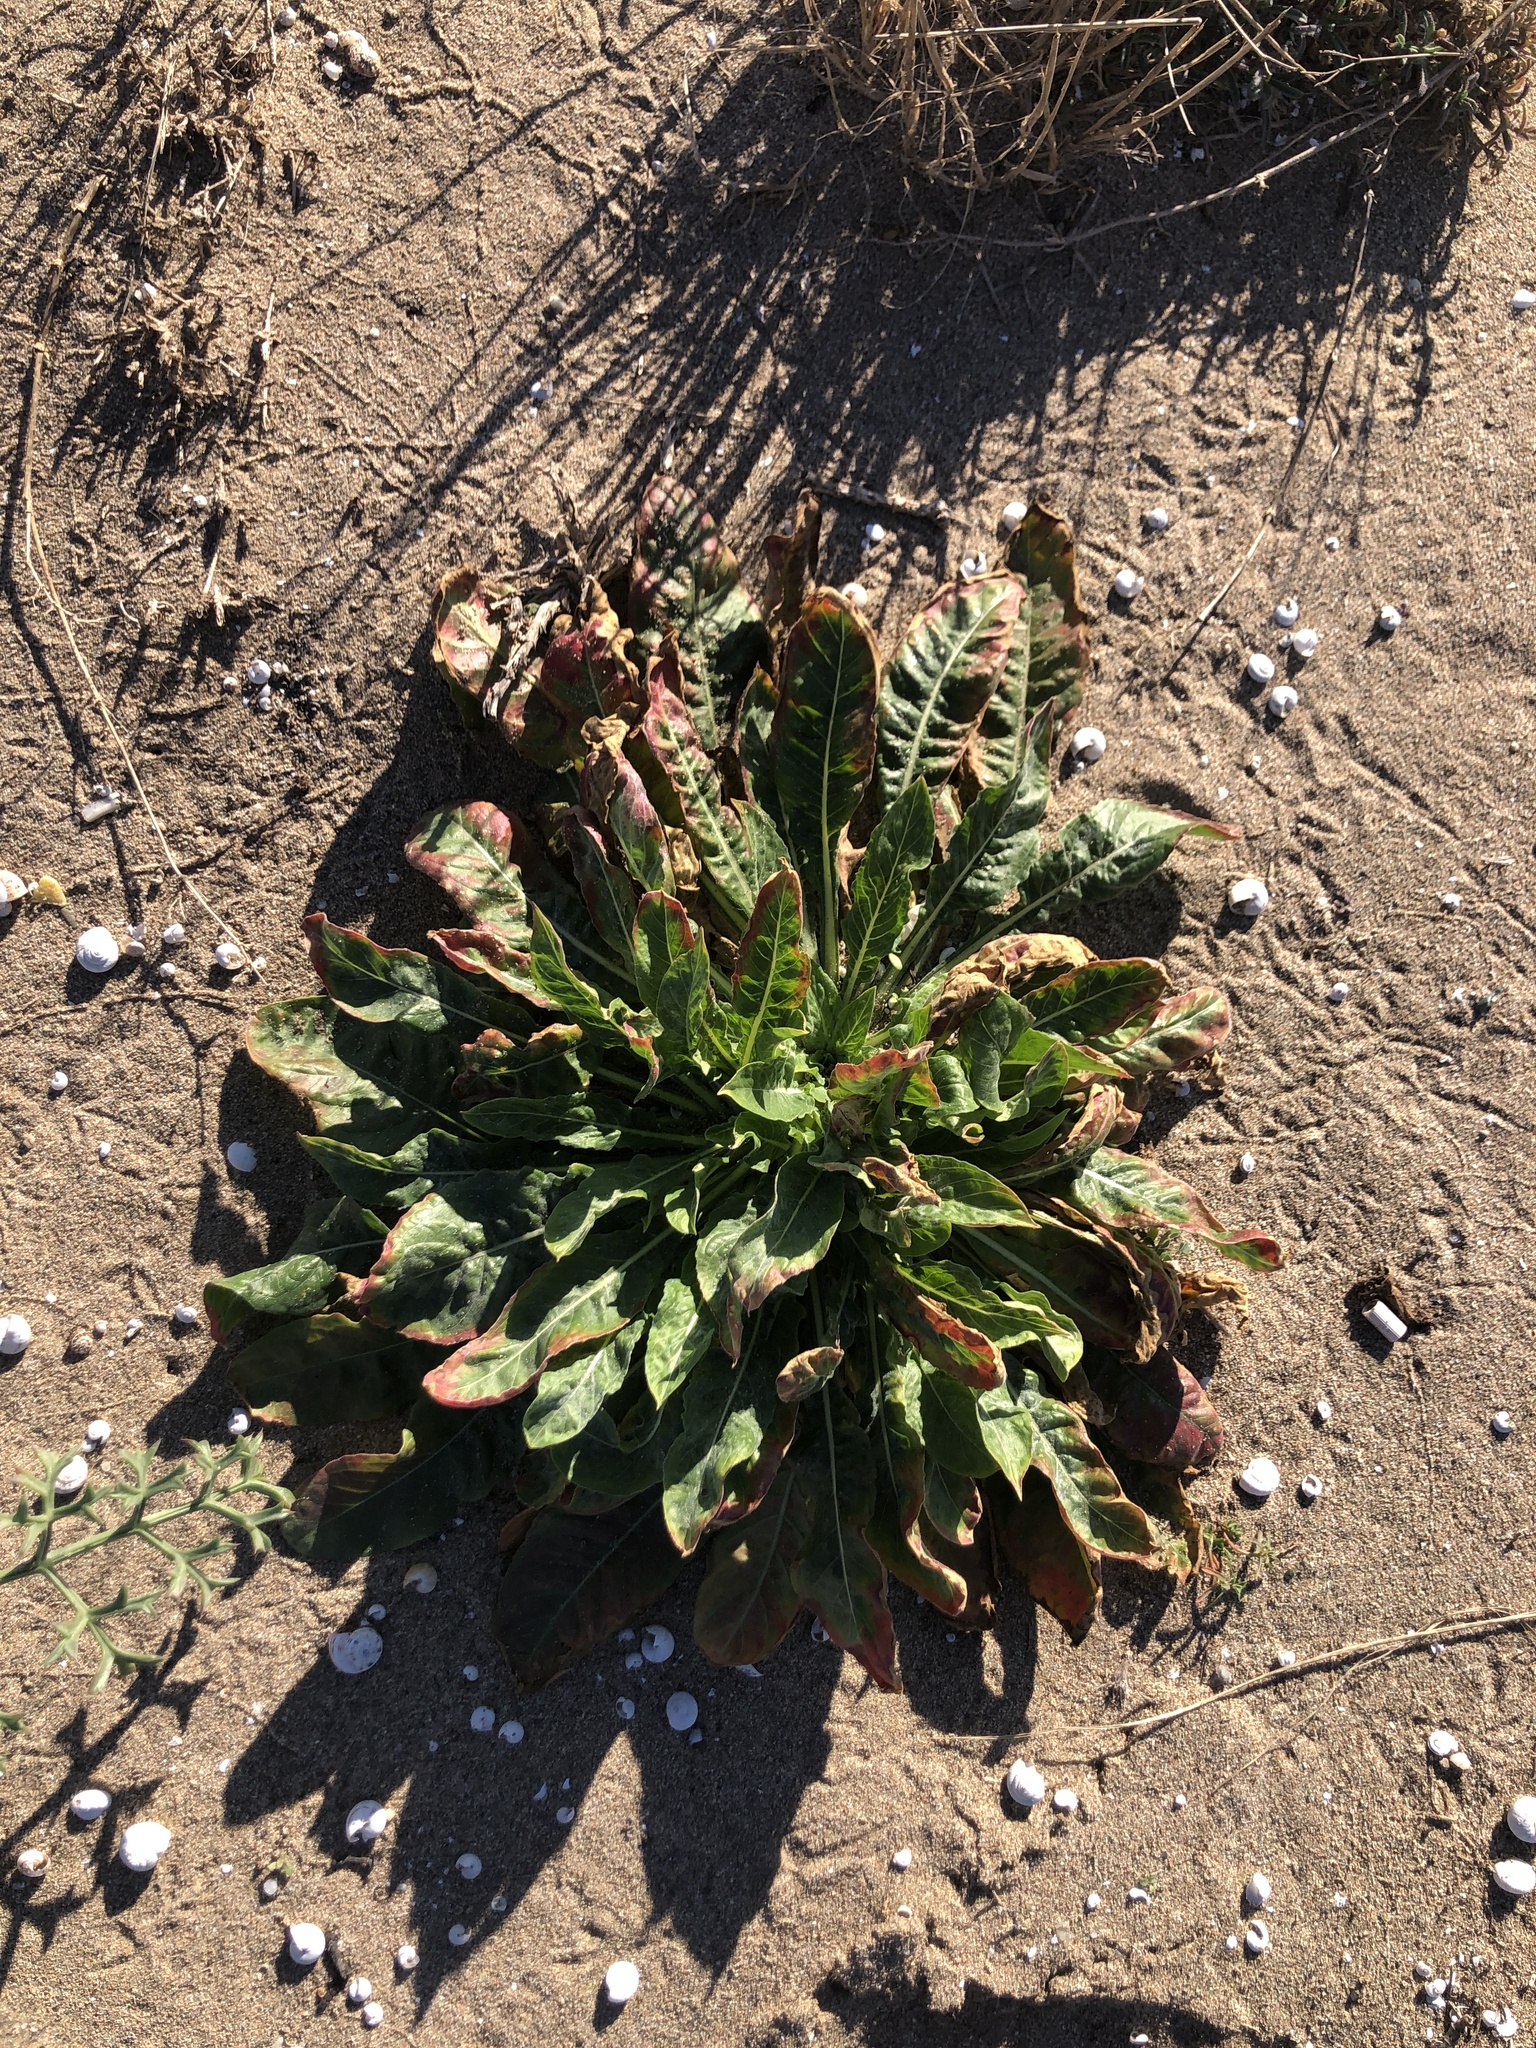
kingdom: Plantae
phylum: Tracheophyta
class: Magnoliopsida
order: Myrtales
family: Onagraceae
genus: Oenothera
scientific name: Oenothera glazioviana
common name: Large-flowered evening-primrose
